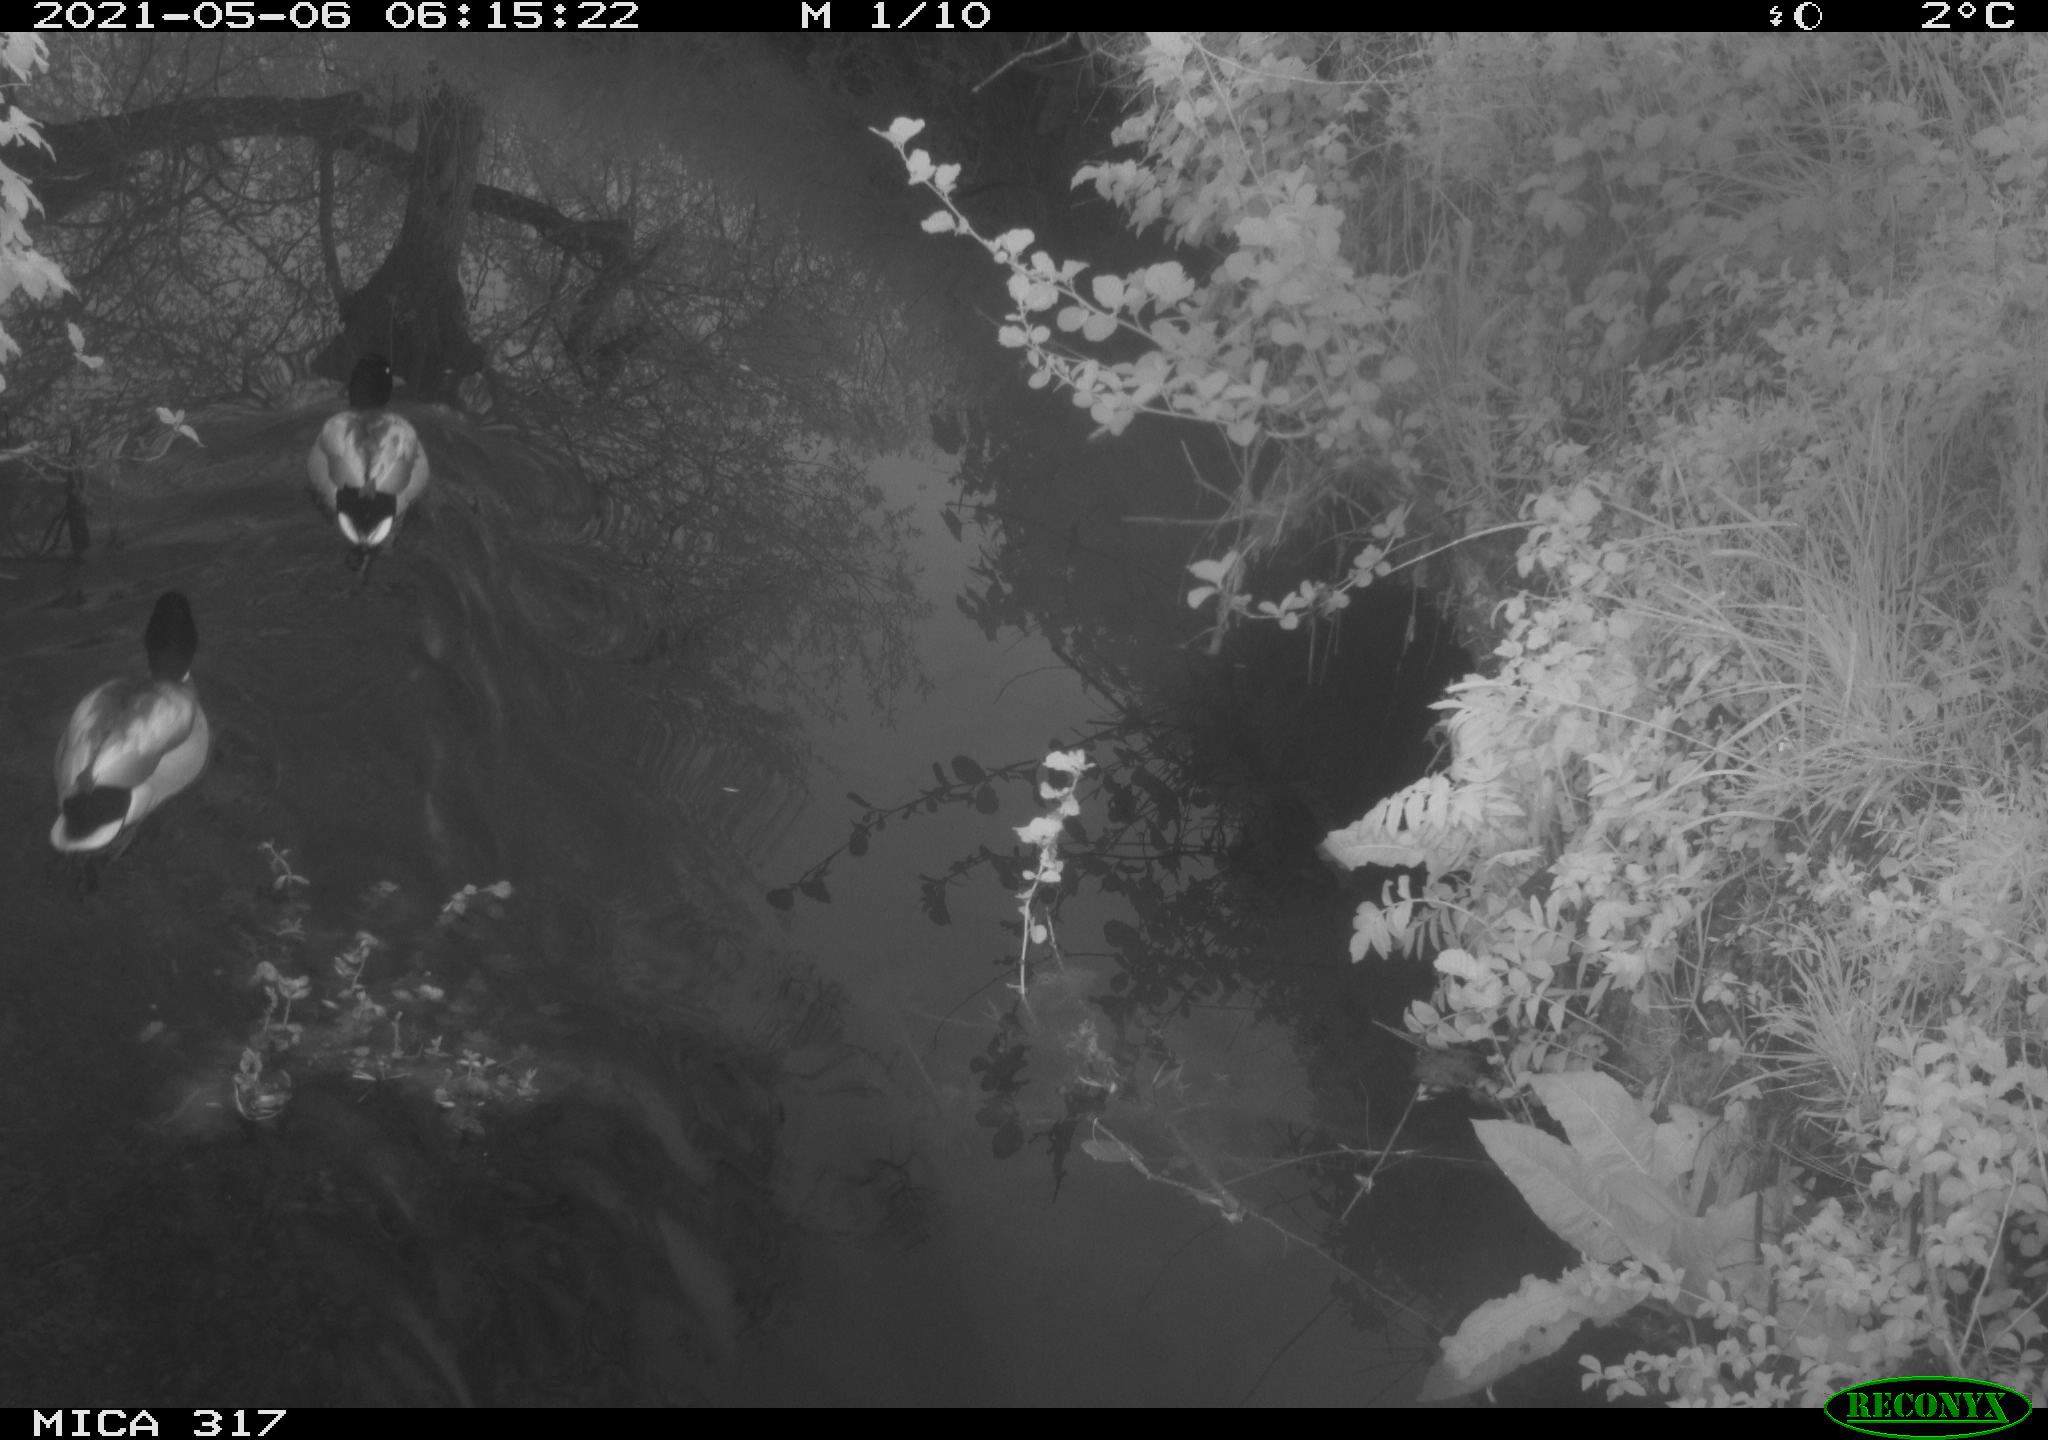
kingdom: Animalia
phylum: Chordata
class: Aves
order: Anseriformes
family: Anatidae
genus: Anas
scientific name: Anas
